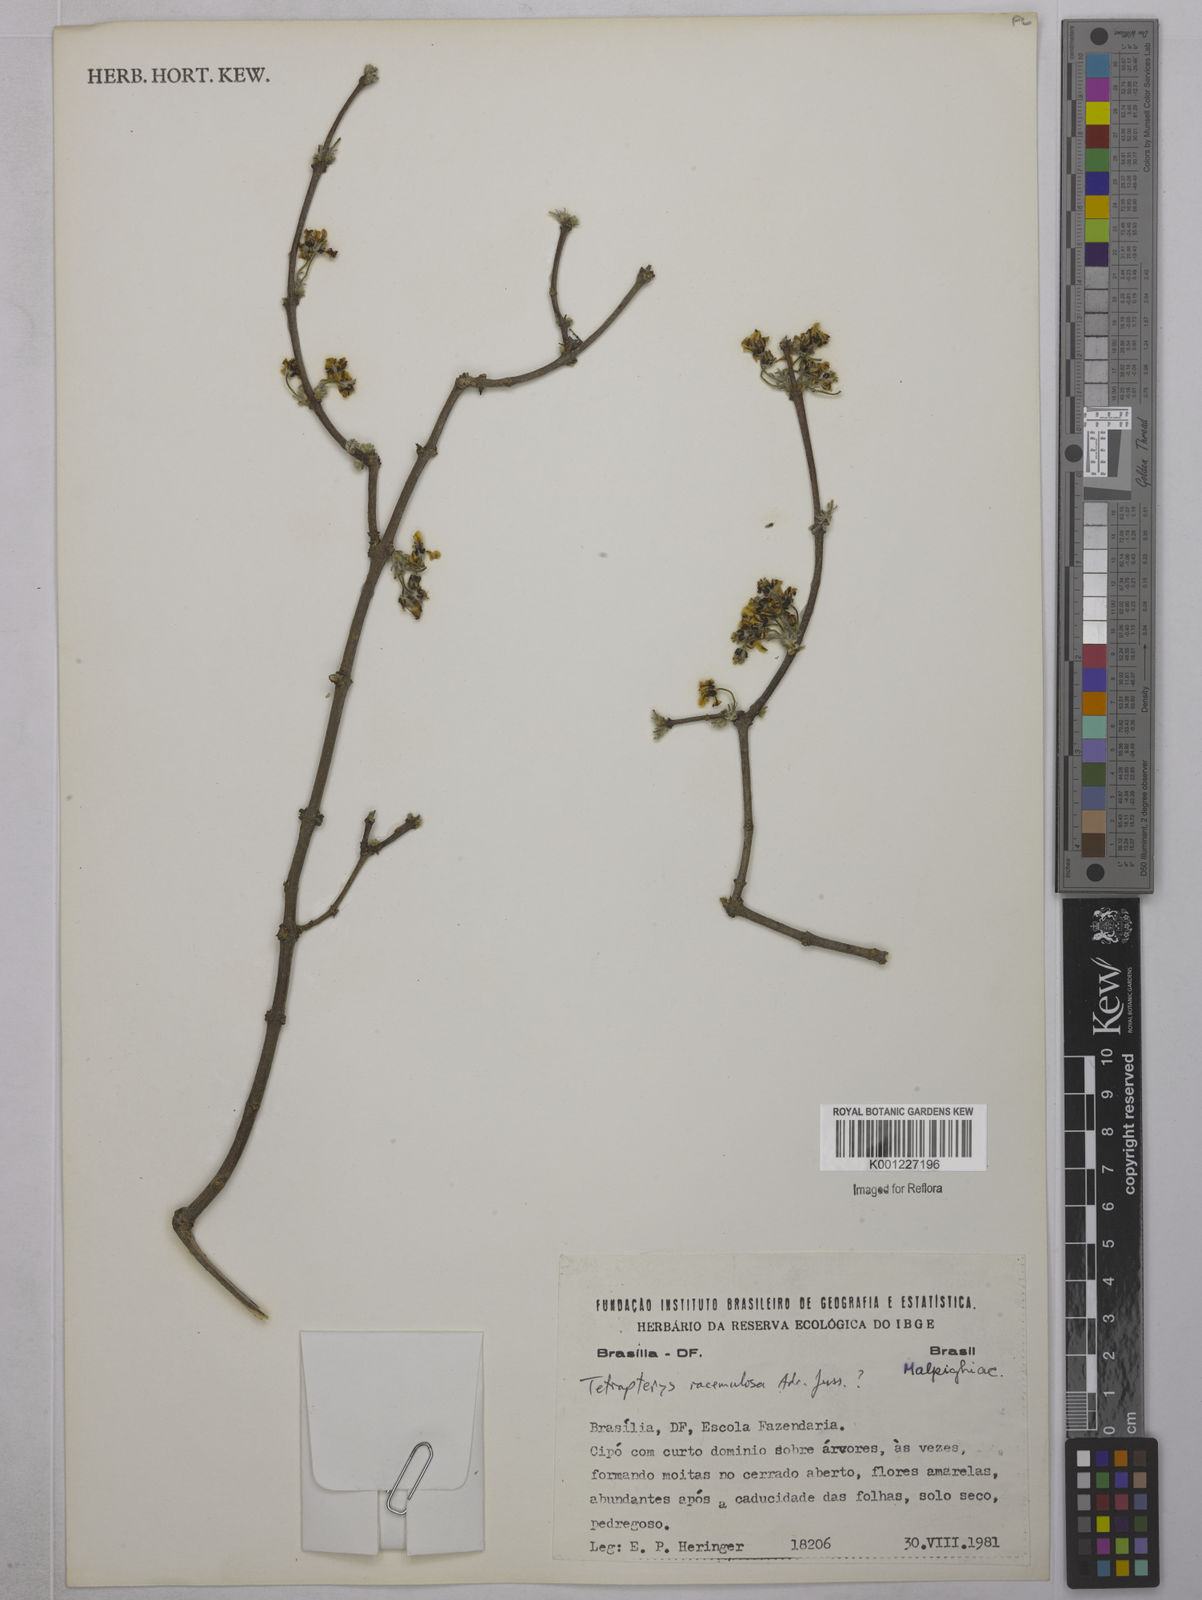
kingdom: Plantae
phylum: Tracheophyta
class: Magnoliopsida
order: Malpighiales
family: Malpighiaceae
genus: Glicophyllum
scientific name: Glicophyllum racemulosum
